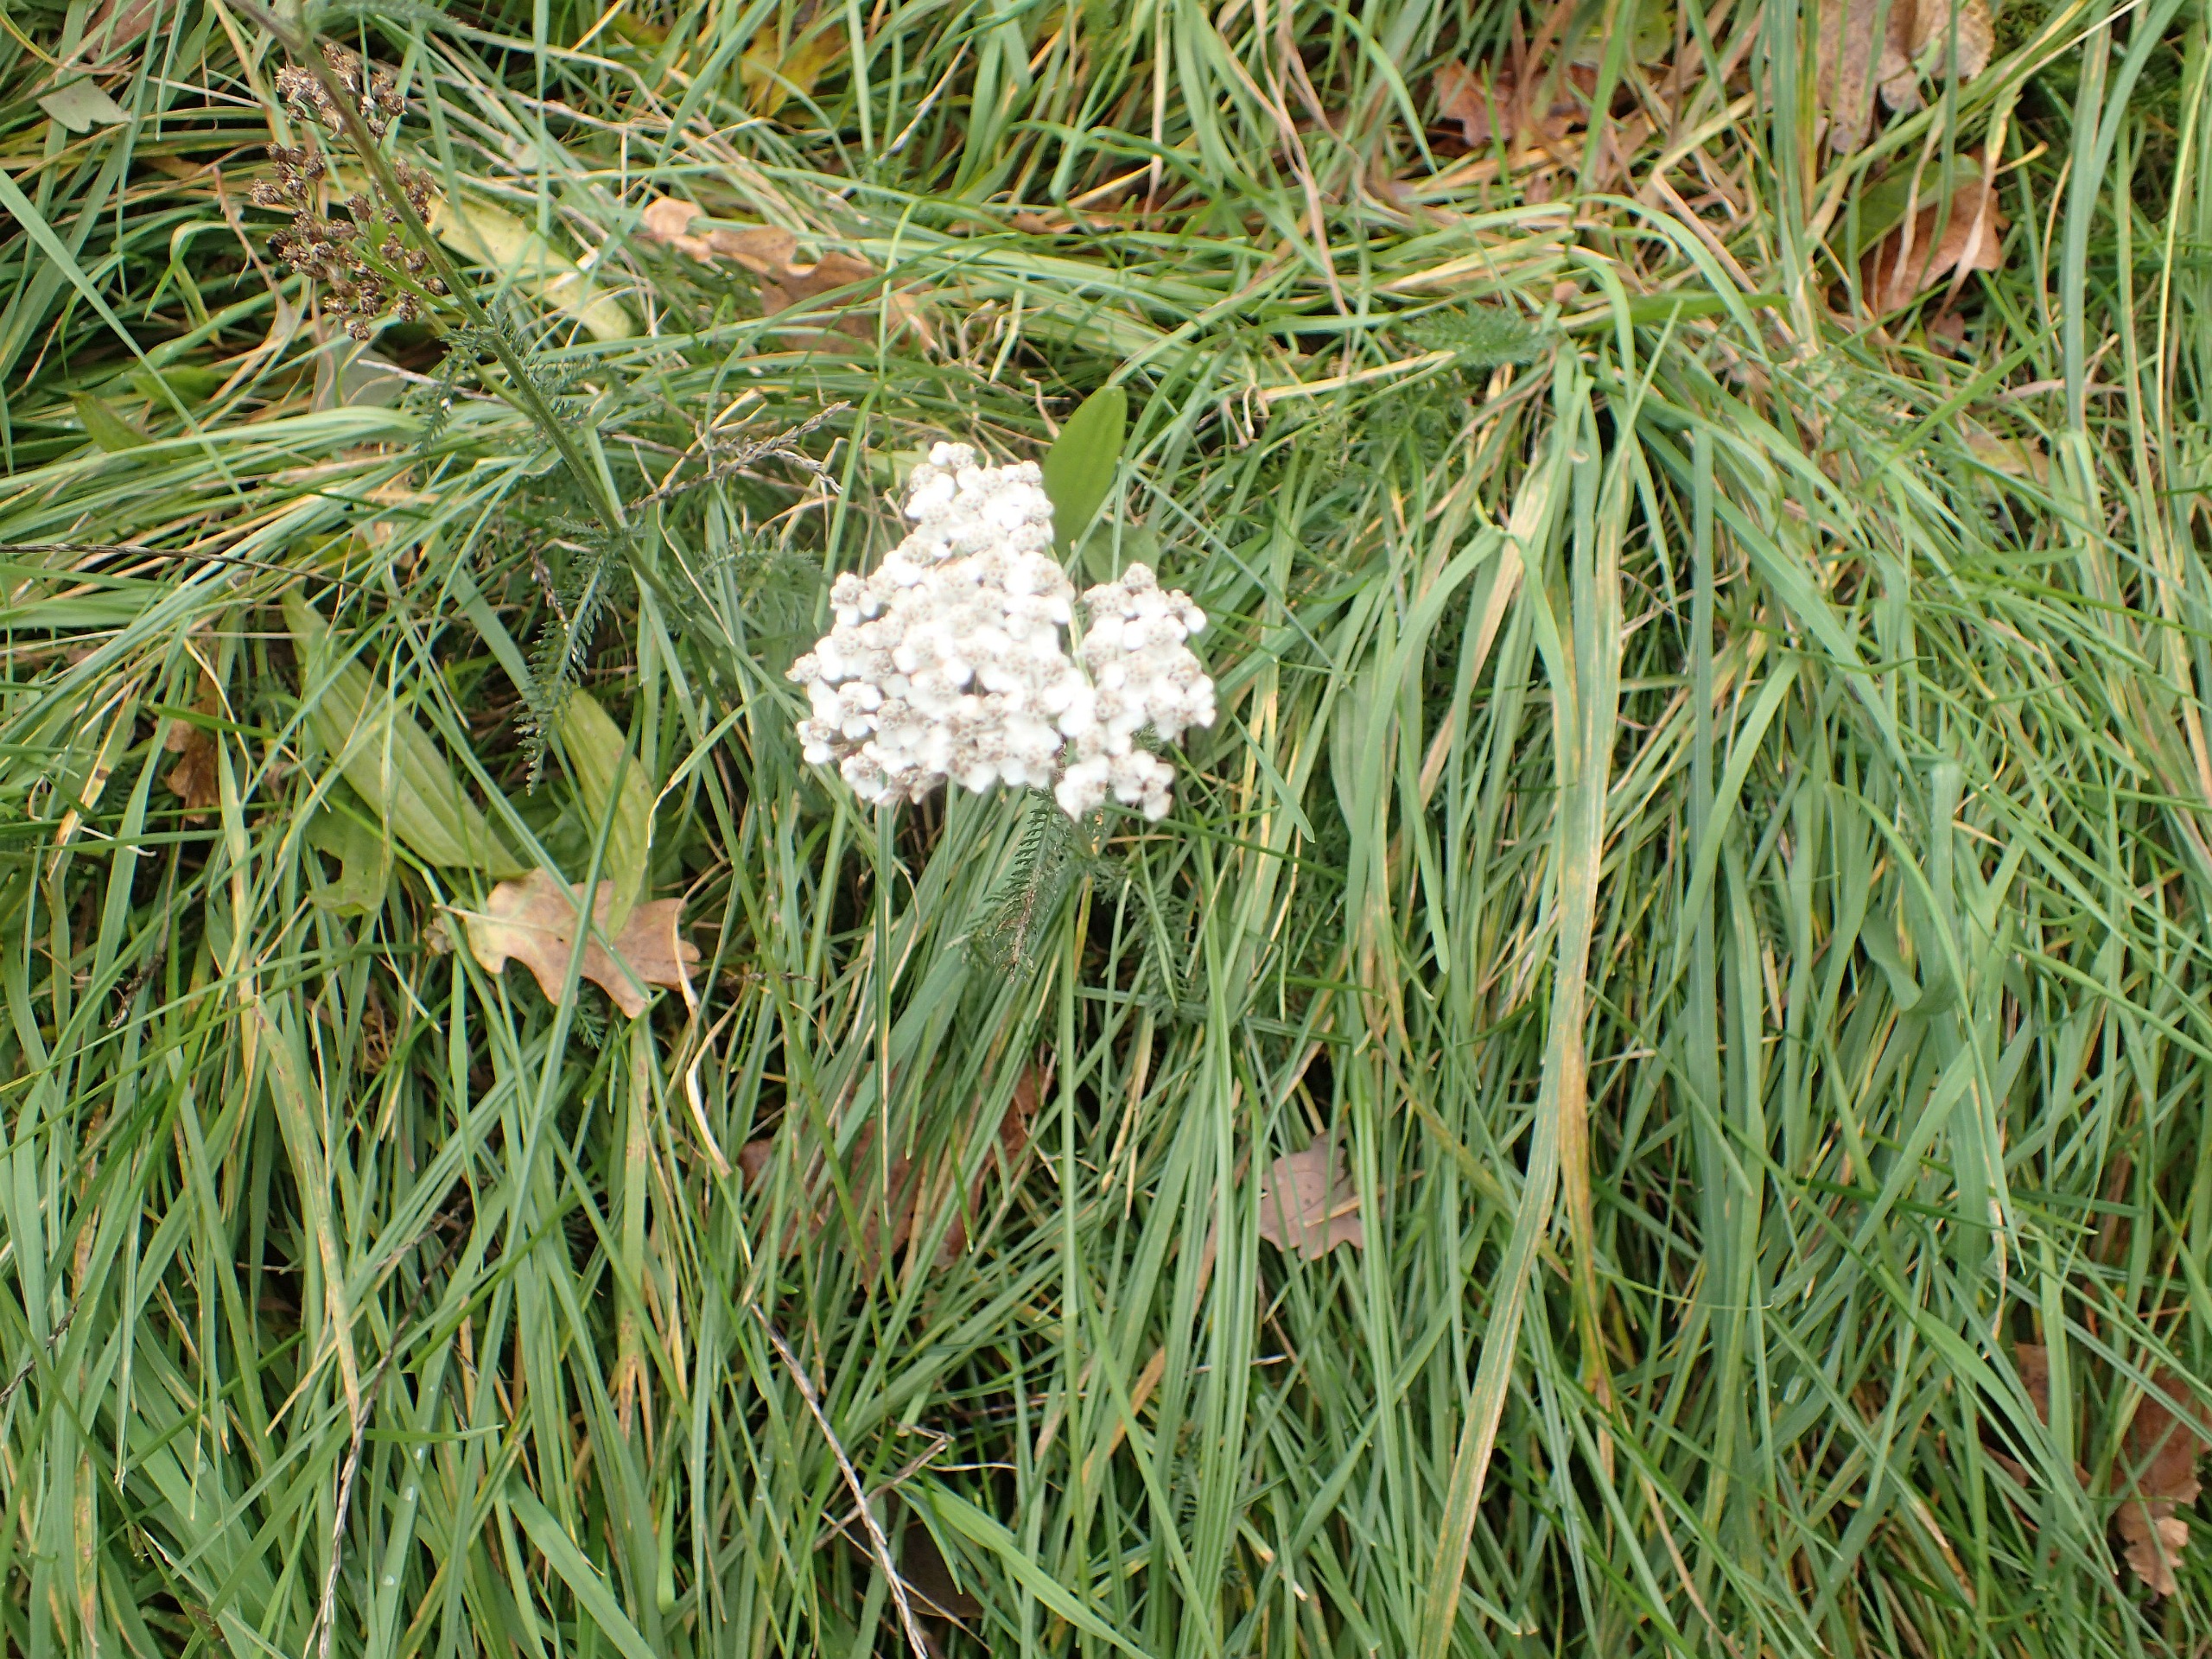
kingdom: Plantae
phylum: Tracheophyta
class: Magnoliopsida
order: Asterales
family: Asteraceae
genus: Achillea
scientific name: Achillea millefolium
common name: Almindelig røllike
